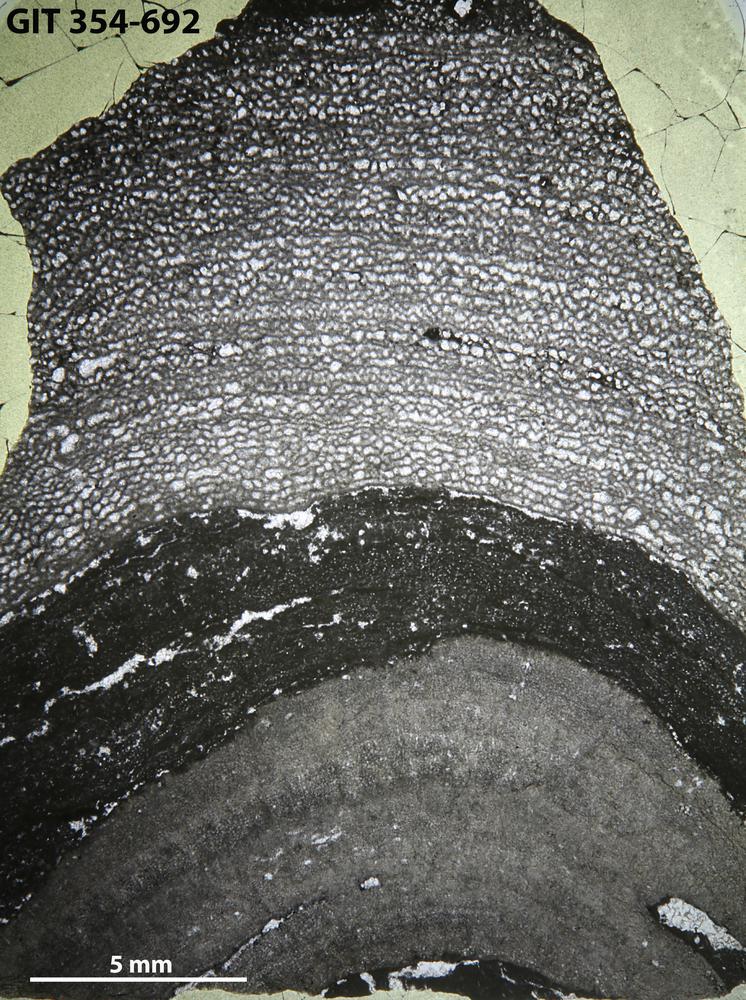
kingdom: Animalia
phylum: Porifera
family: Ecclimadictyidae
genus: Ecclimadictyon
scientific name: Ecclimadictyon
